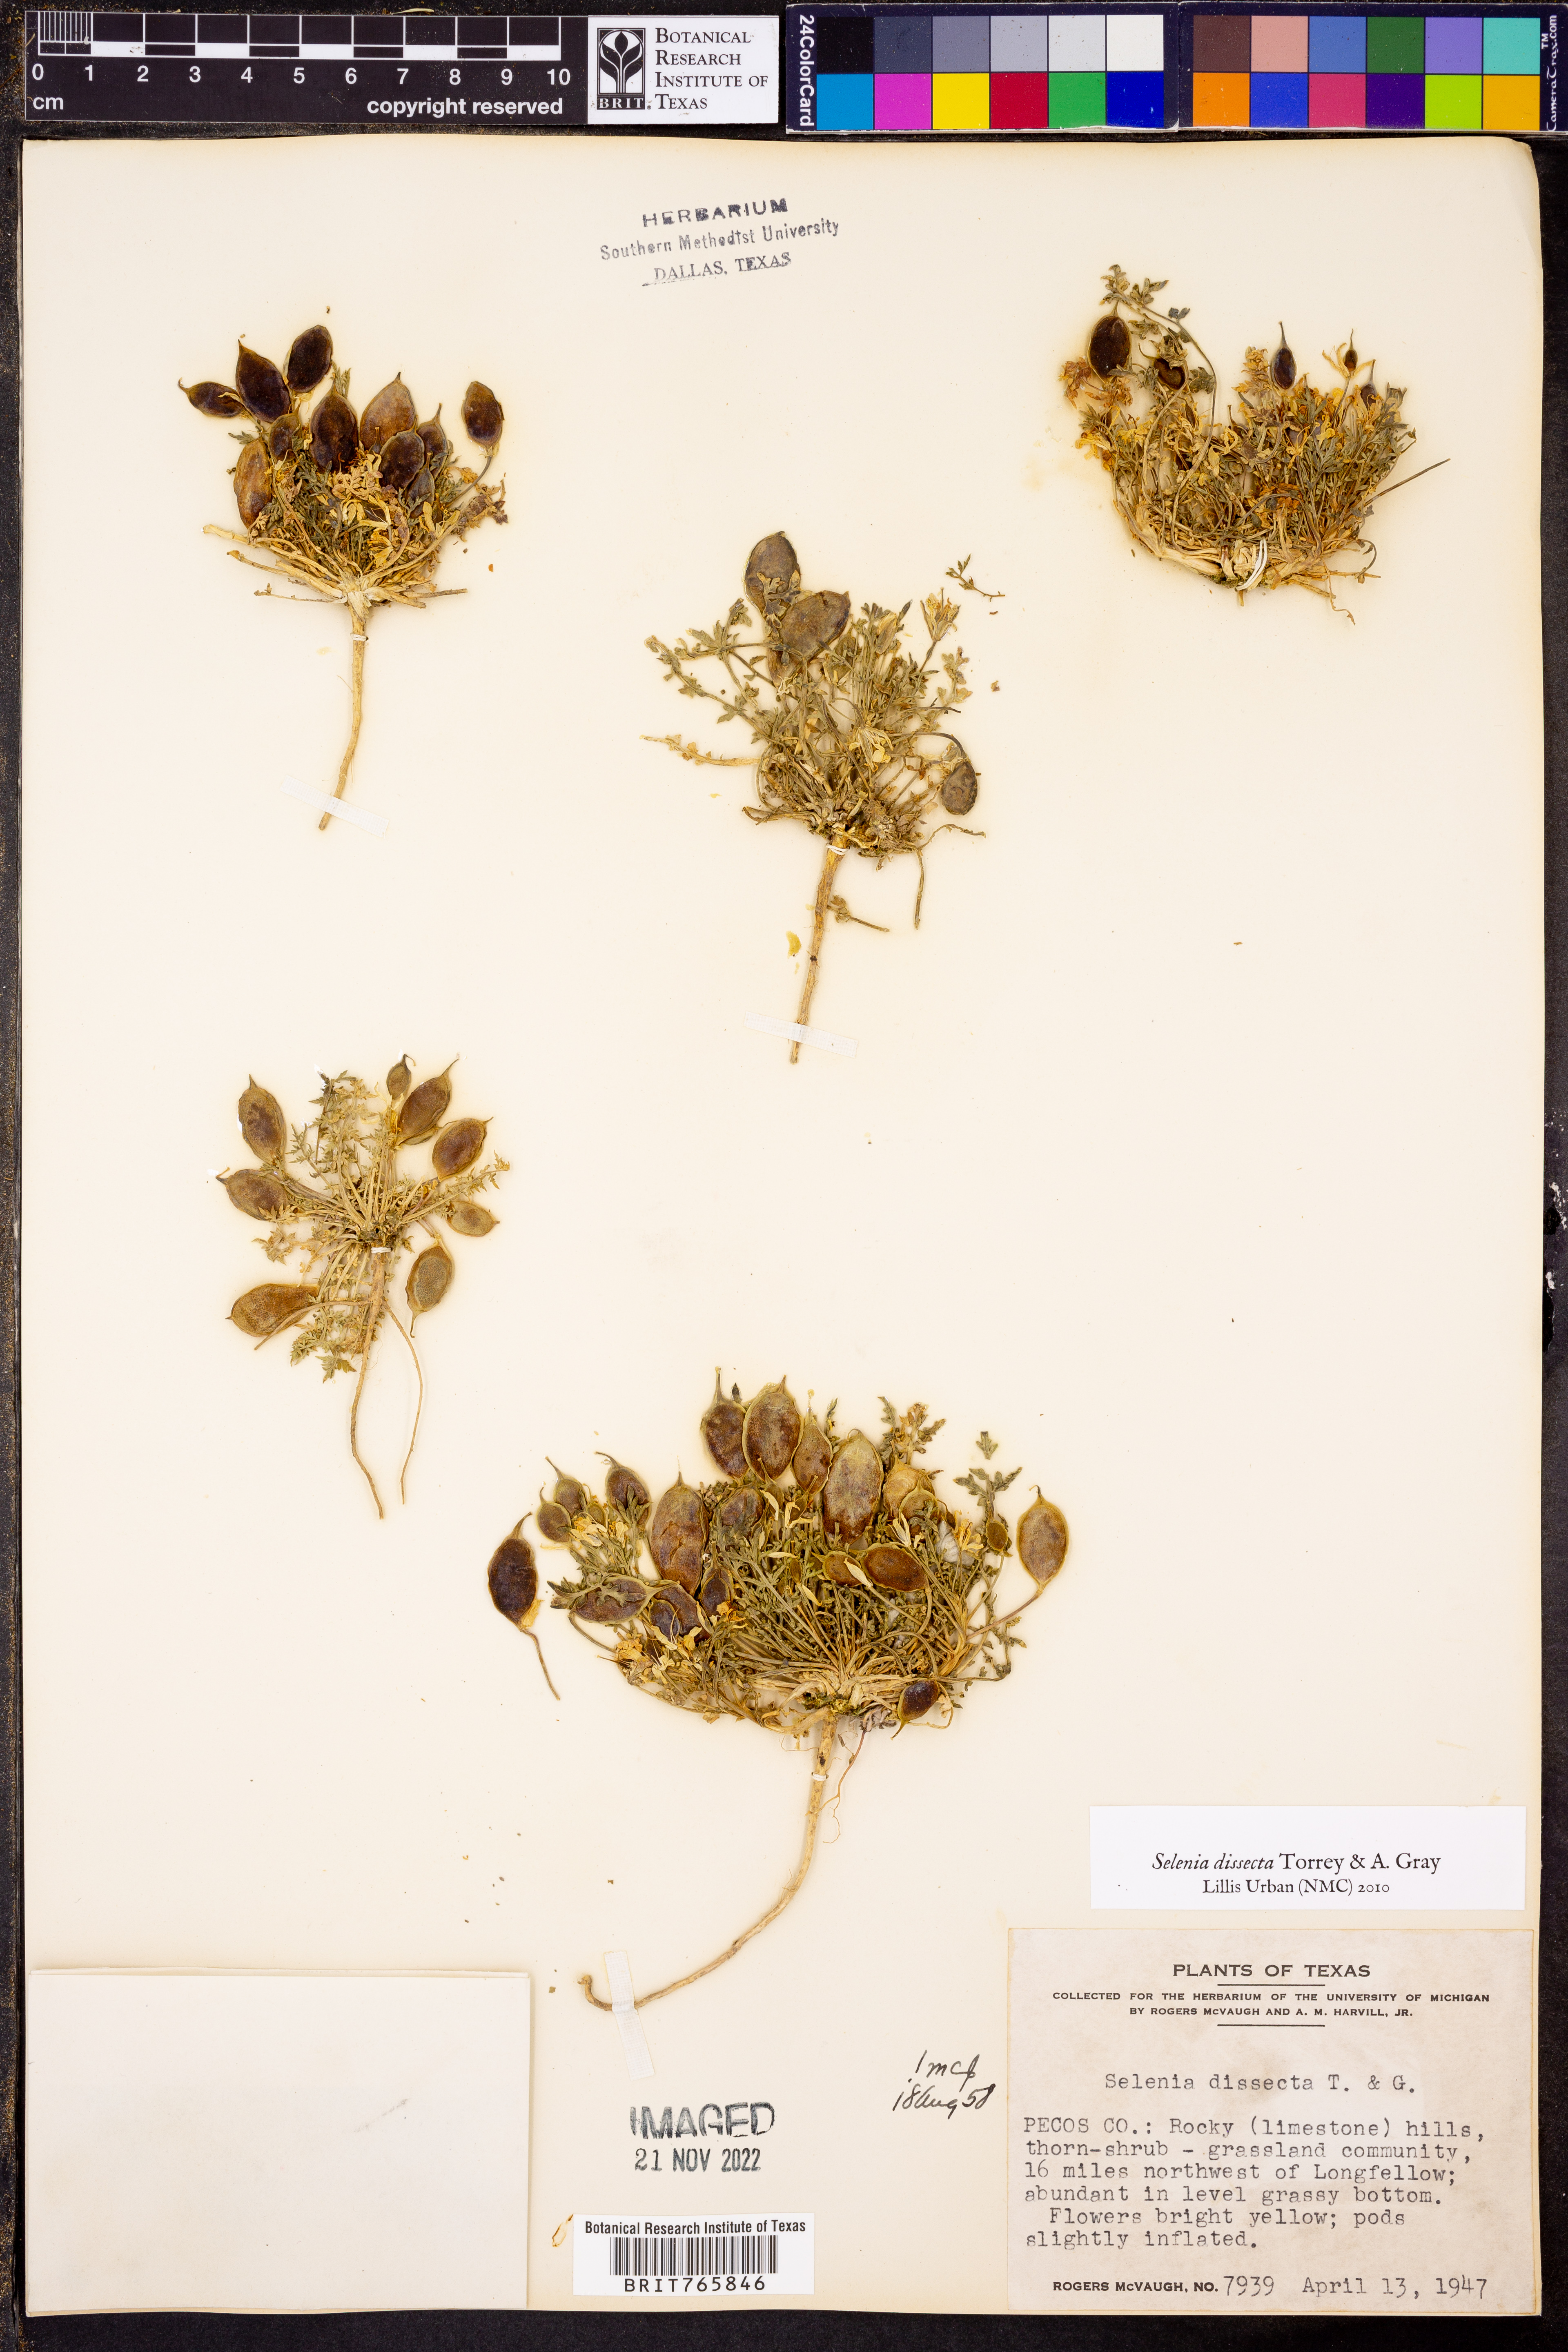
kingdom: Plantae
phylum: Tracheophyta
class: Magnoliopsida
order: Brassicales
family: Brassicaceae
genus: Selenia
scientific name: Selenia dissecta
